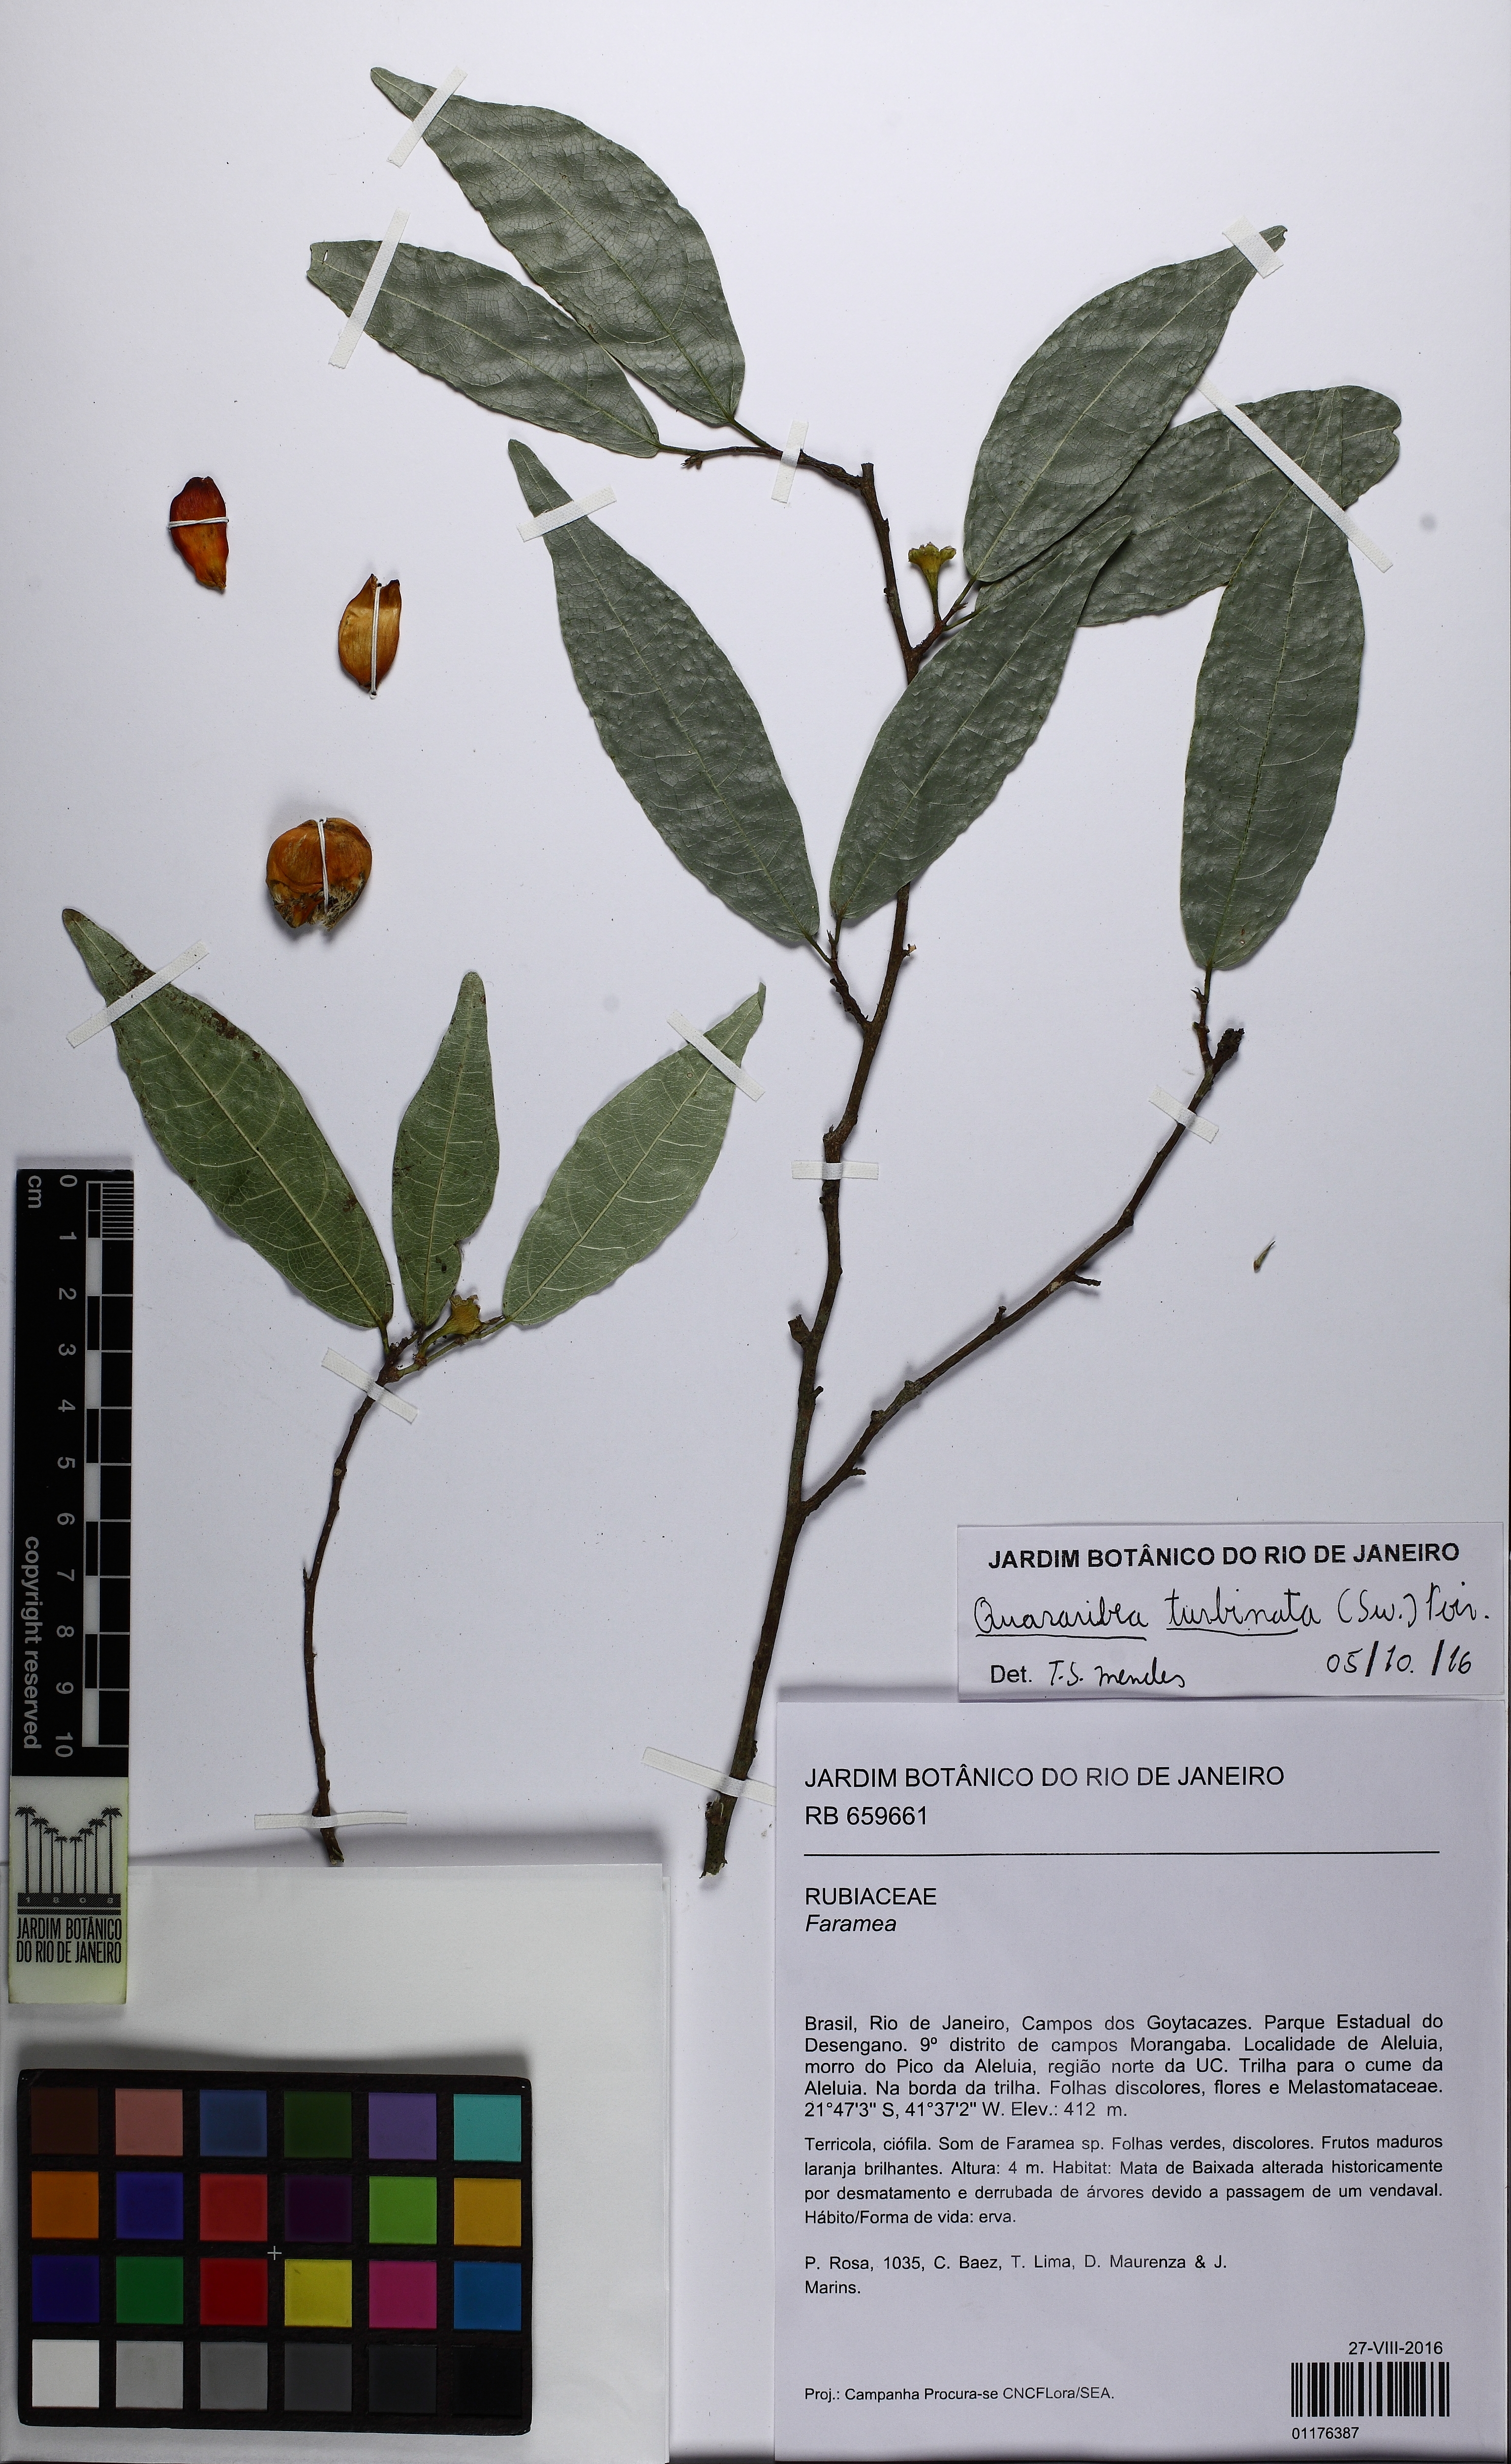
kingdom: Plantae
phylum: Tracheophyta
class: Magnoliopsida
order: Malvales
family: Malvaceae
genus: Quararibea
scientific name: Quararibea angustifolia
